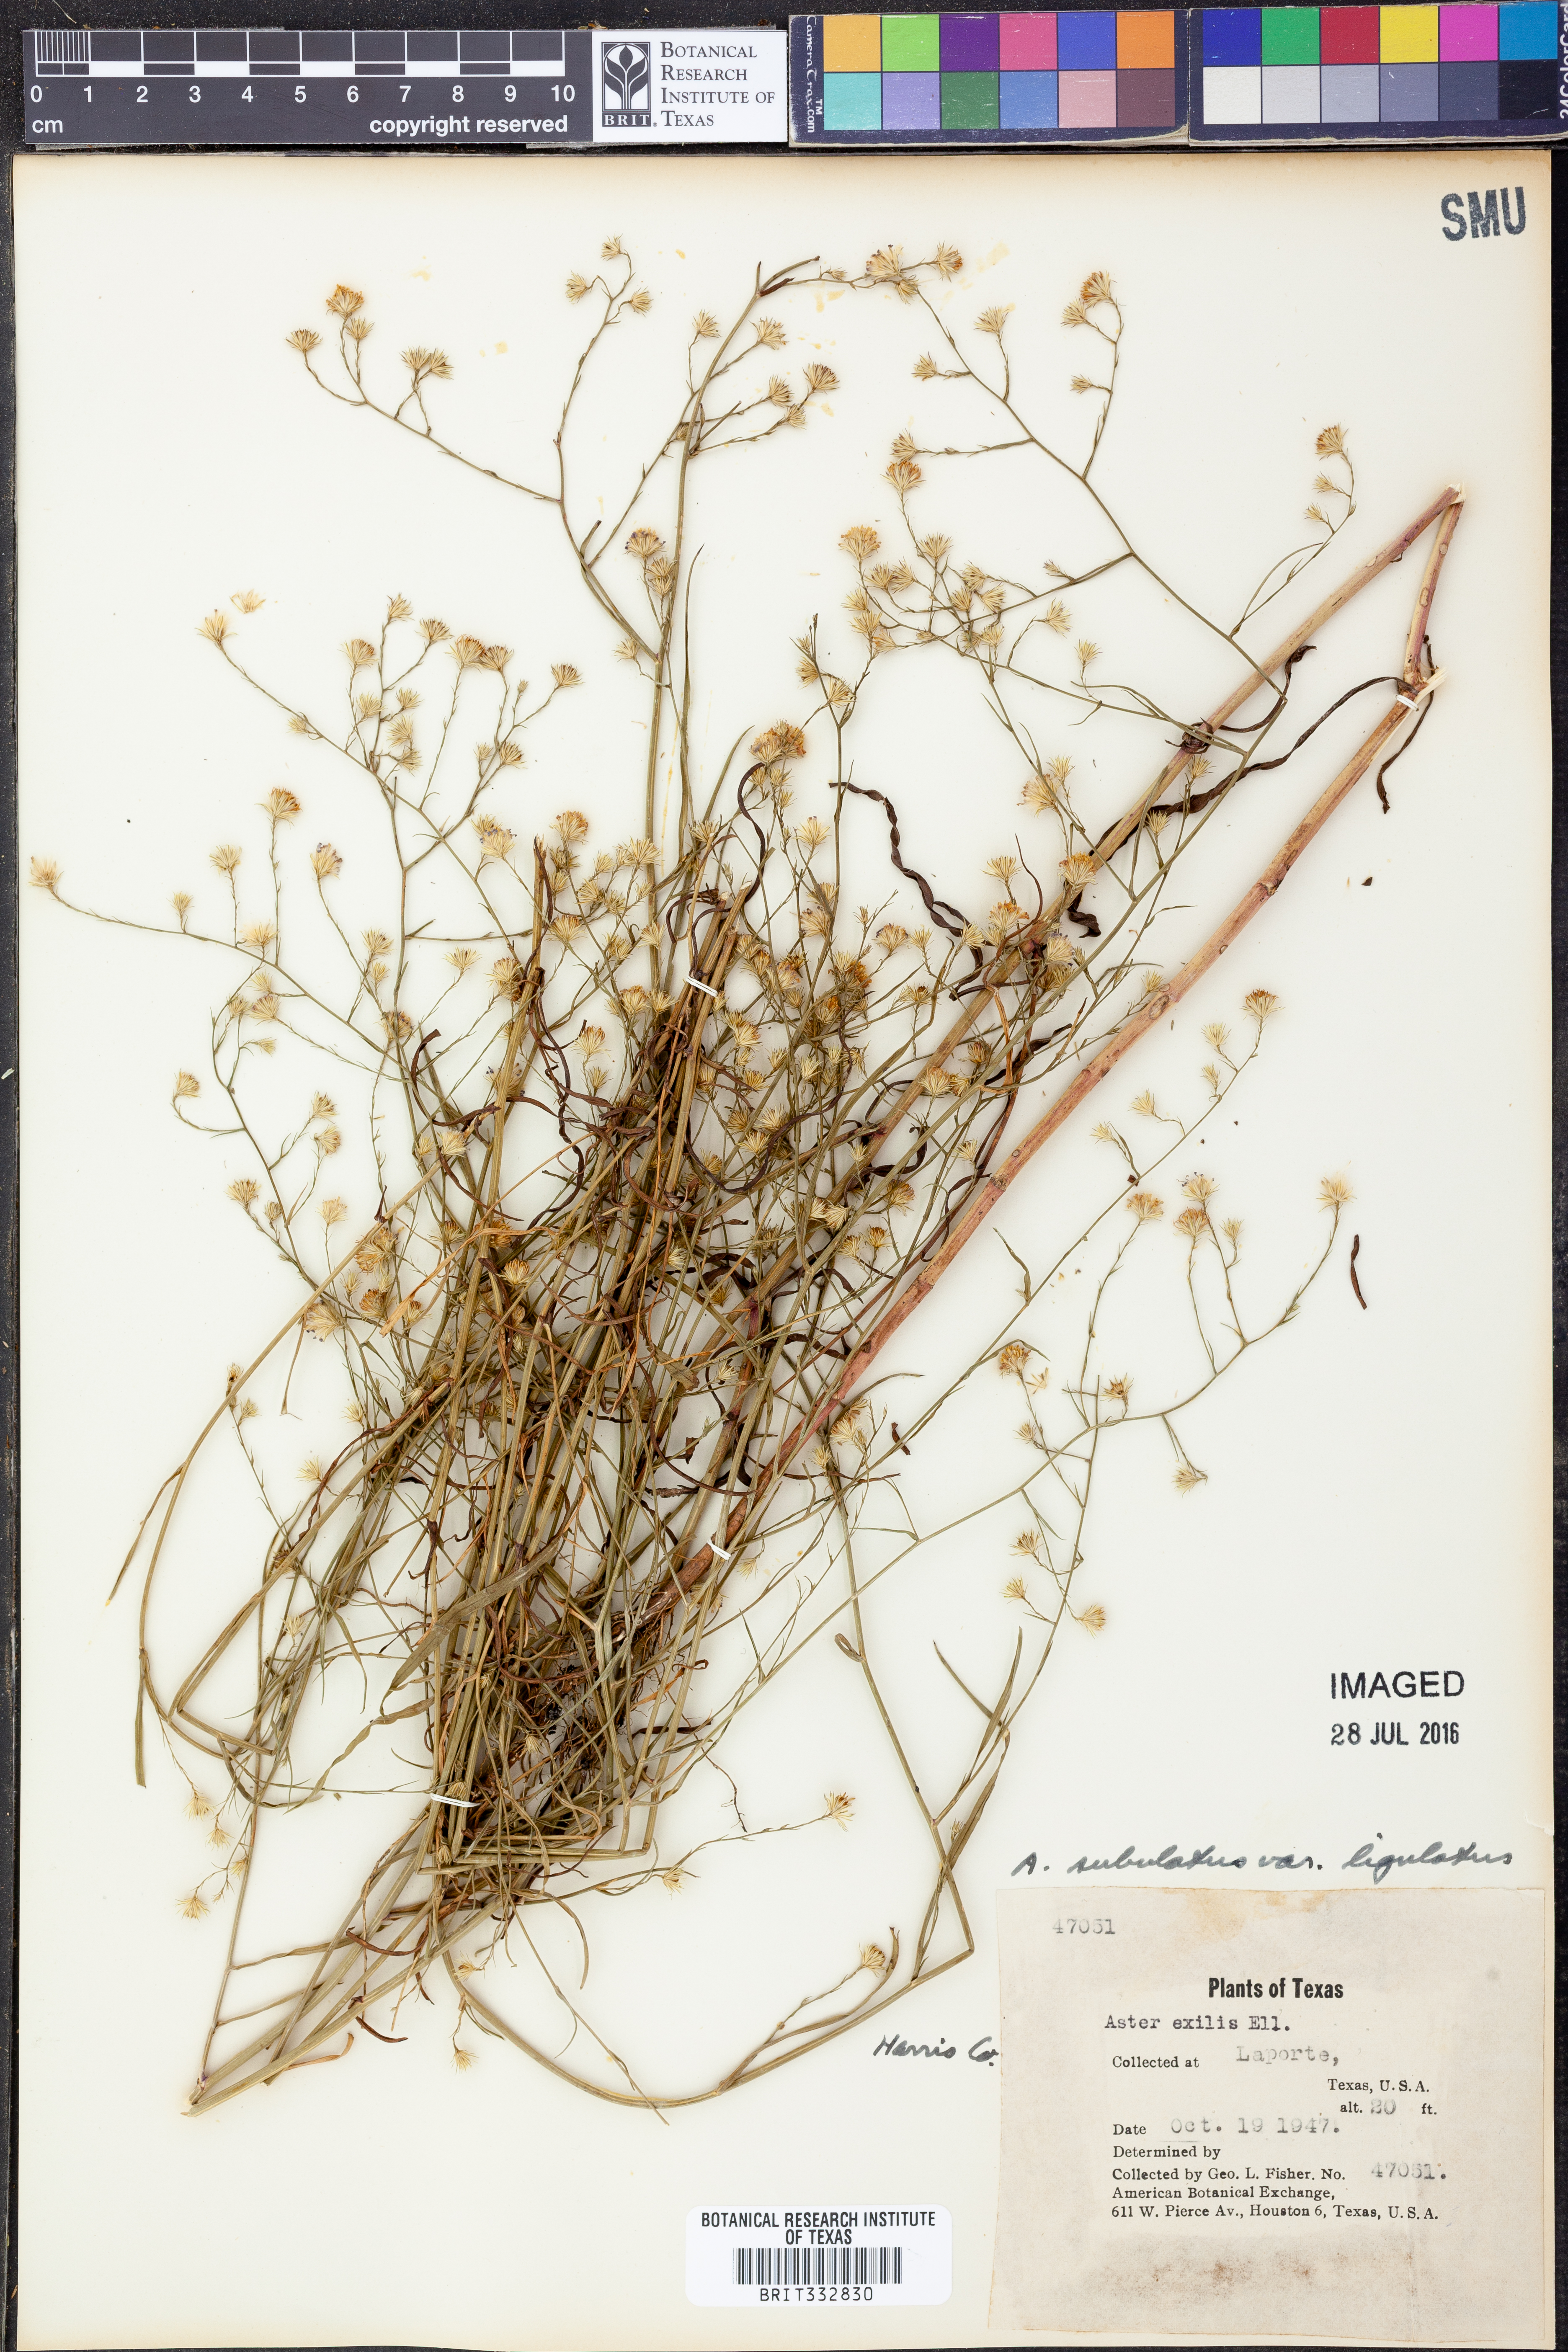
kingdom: Plantae
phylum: Tracheophyta
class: Magnoliopsida
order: Asterales
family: Asteraceae
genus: Symphyotrichum
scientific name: Symphyotrichum divaricatum
